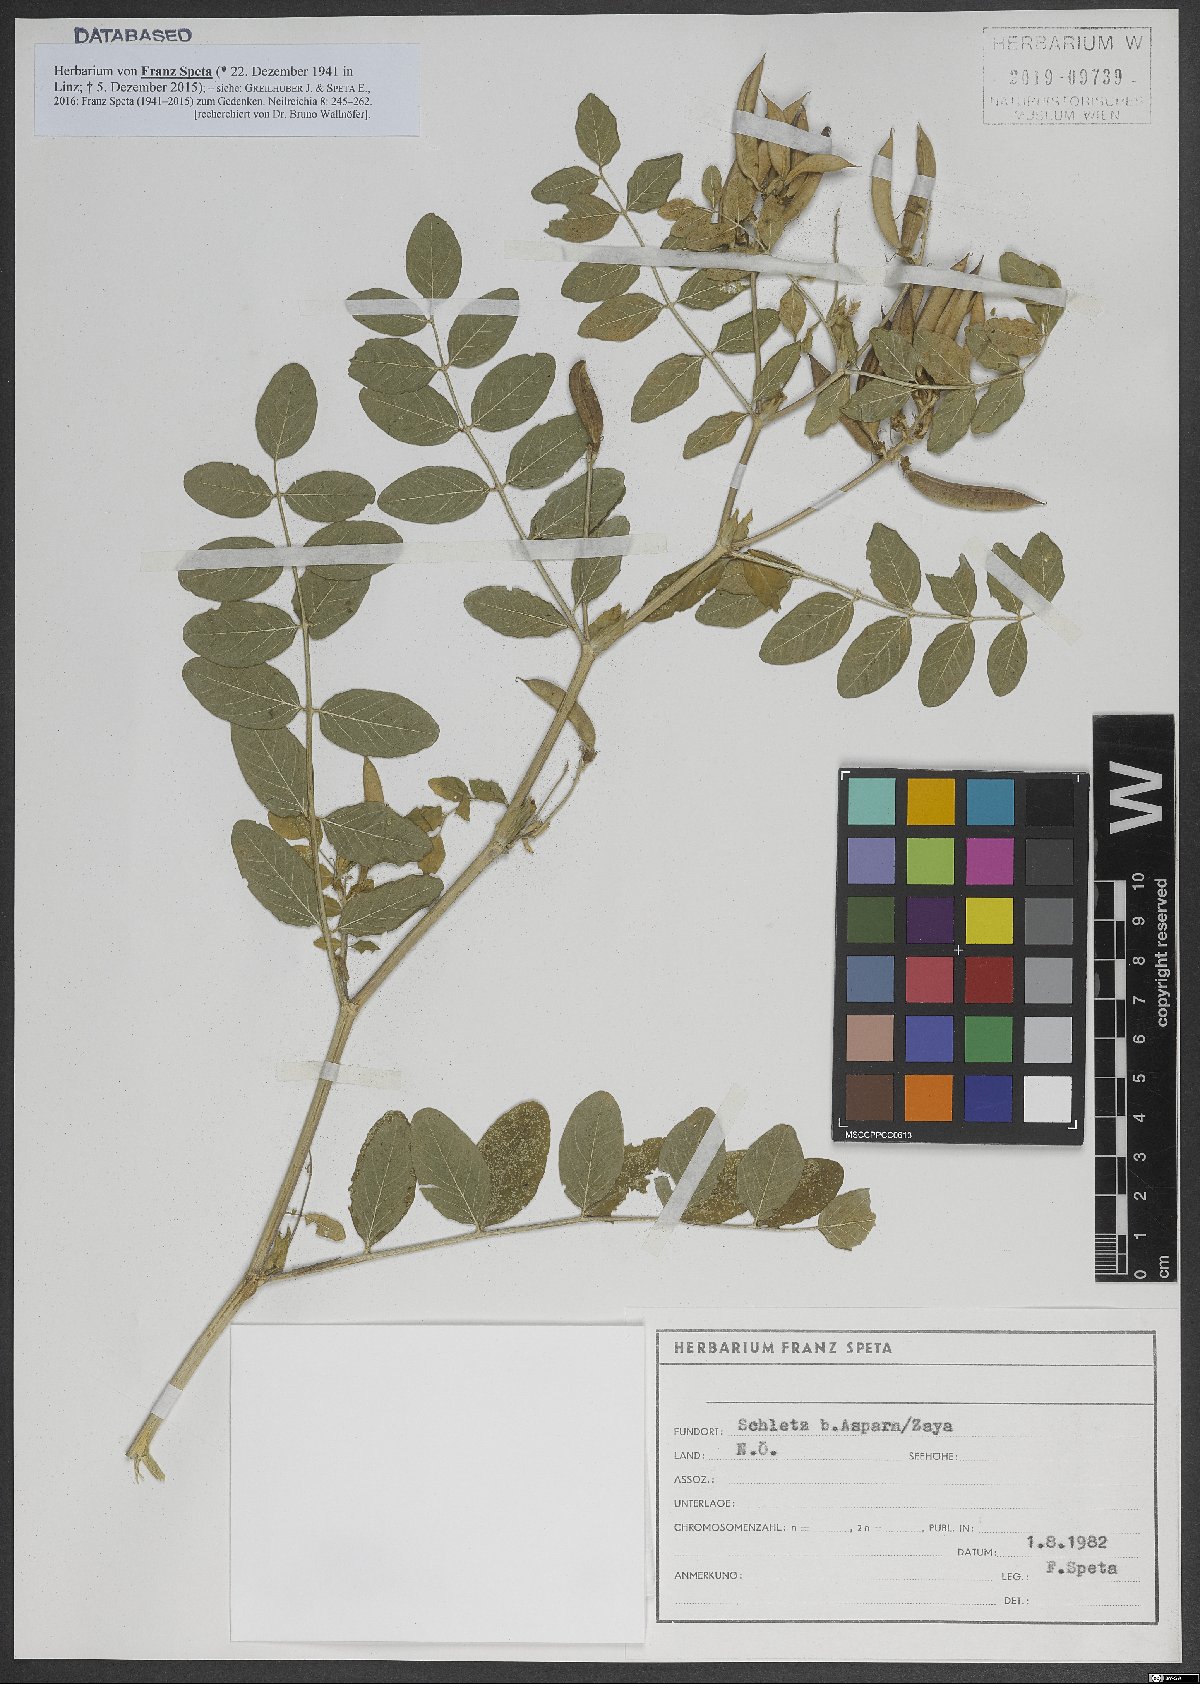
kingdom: Plantae
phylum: Tracheophyta
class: Magnoliopsida
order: Fabales
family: Fabaceae
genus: Astragalus
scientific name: Astragalus glycyphyllos
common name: Wild liquorice
